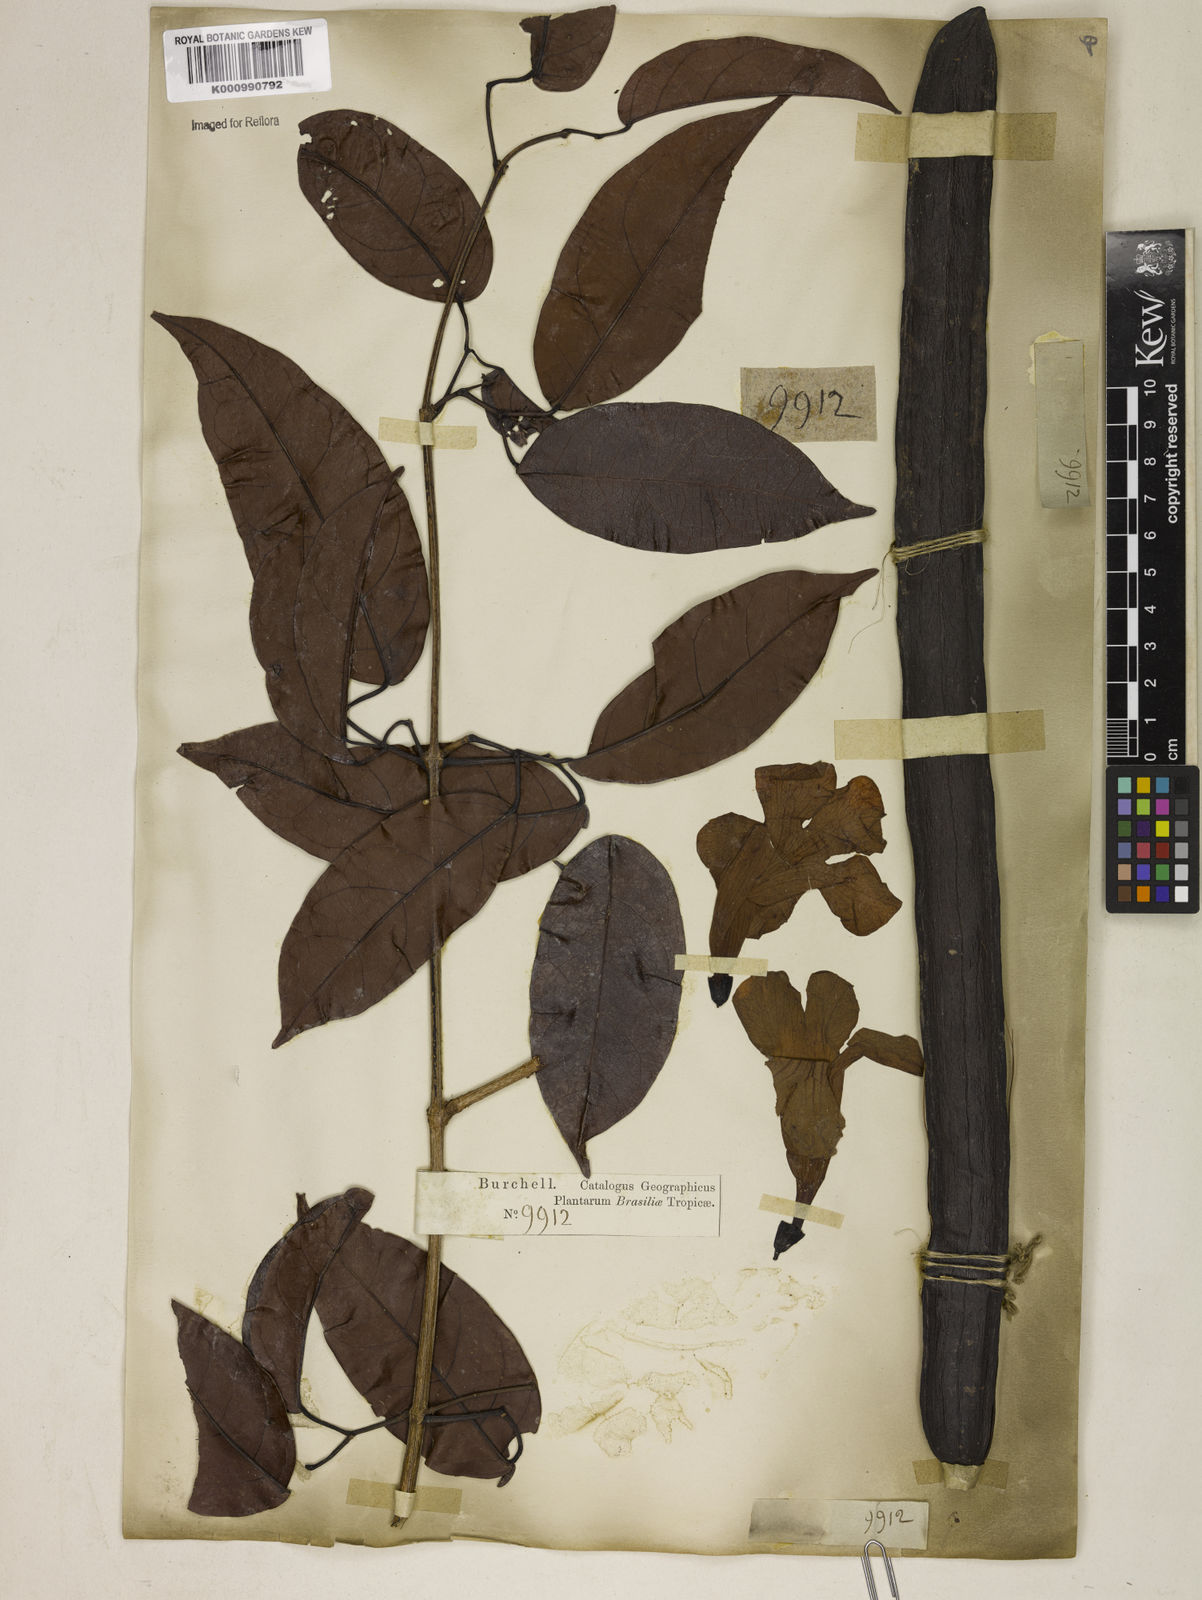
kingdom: Plantae
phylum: Tracheophyta
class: Magnoliopsida
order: Lamiales
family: Bignoniaceae
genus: Bignonia
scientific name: Bignonia aequinoctialis
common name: Garlicvine
